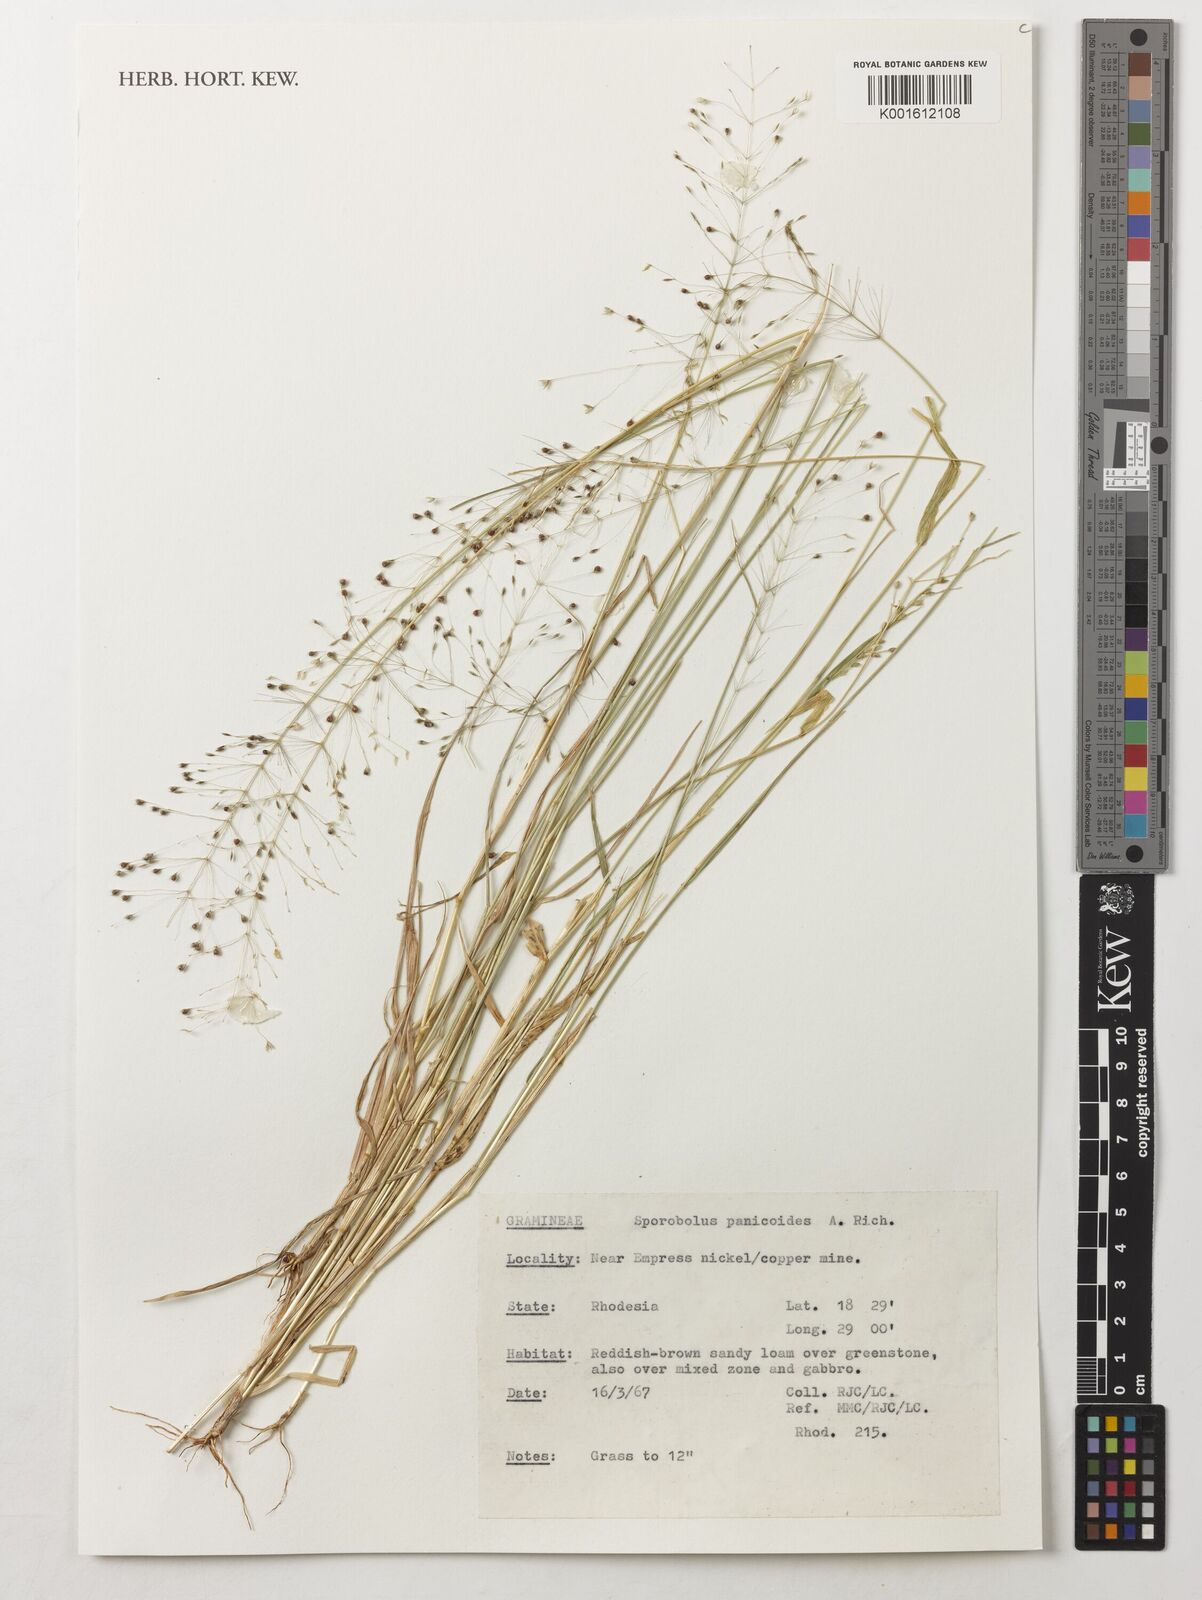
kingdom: Plantae
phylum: Tracheophyta
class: Liliopsida
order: Poales
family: Poaceae
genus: Sporobolus
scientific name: Sporobolus panicoides
